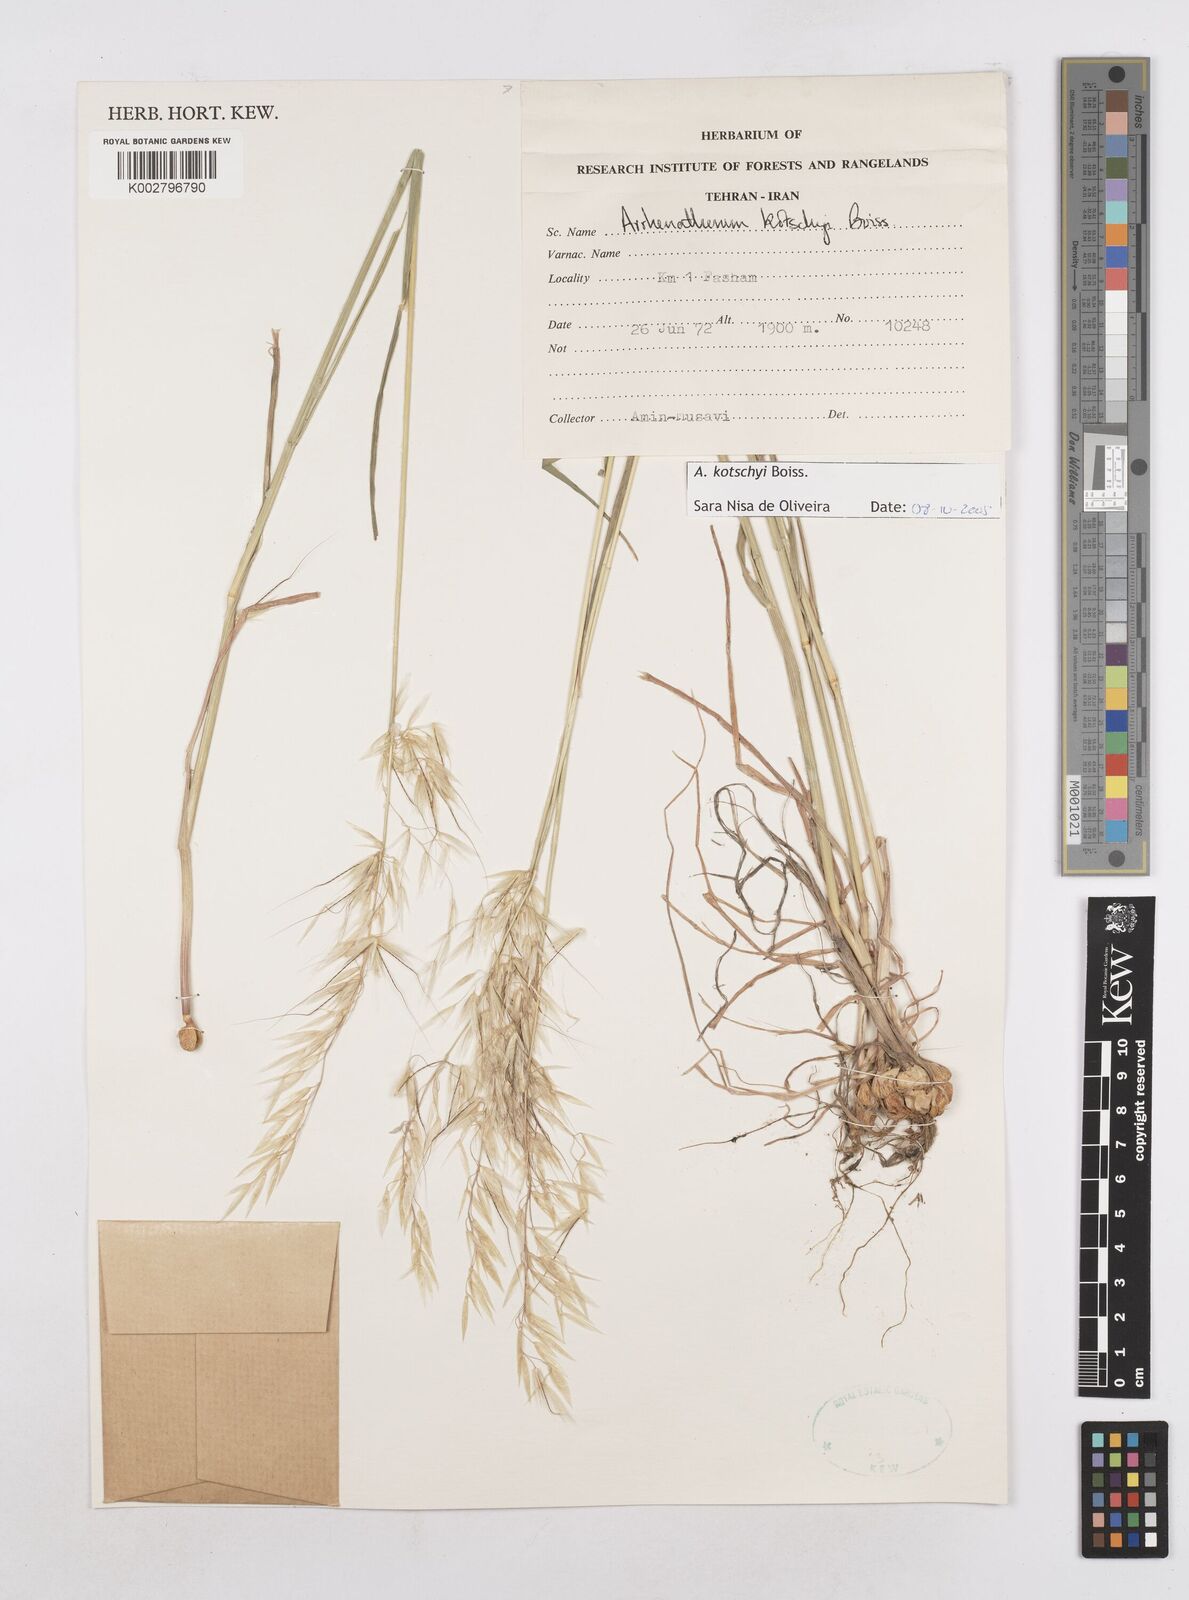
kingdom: Plantae
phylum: Tracheophyta
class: Liliopsida
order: Poales
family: Poaceae
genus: Arrhenatherum
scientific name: Arrhenatherum kotschyi
